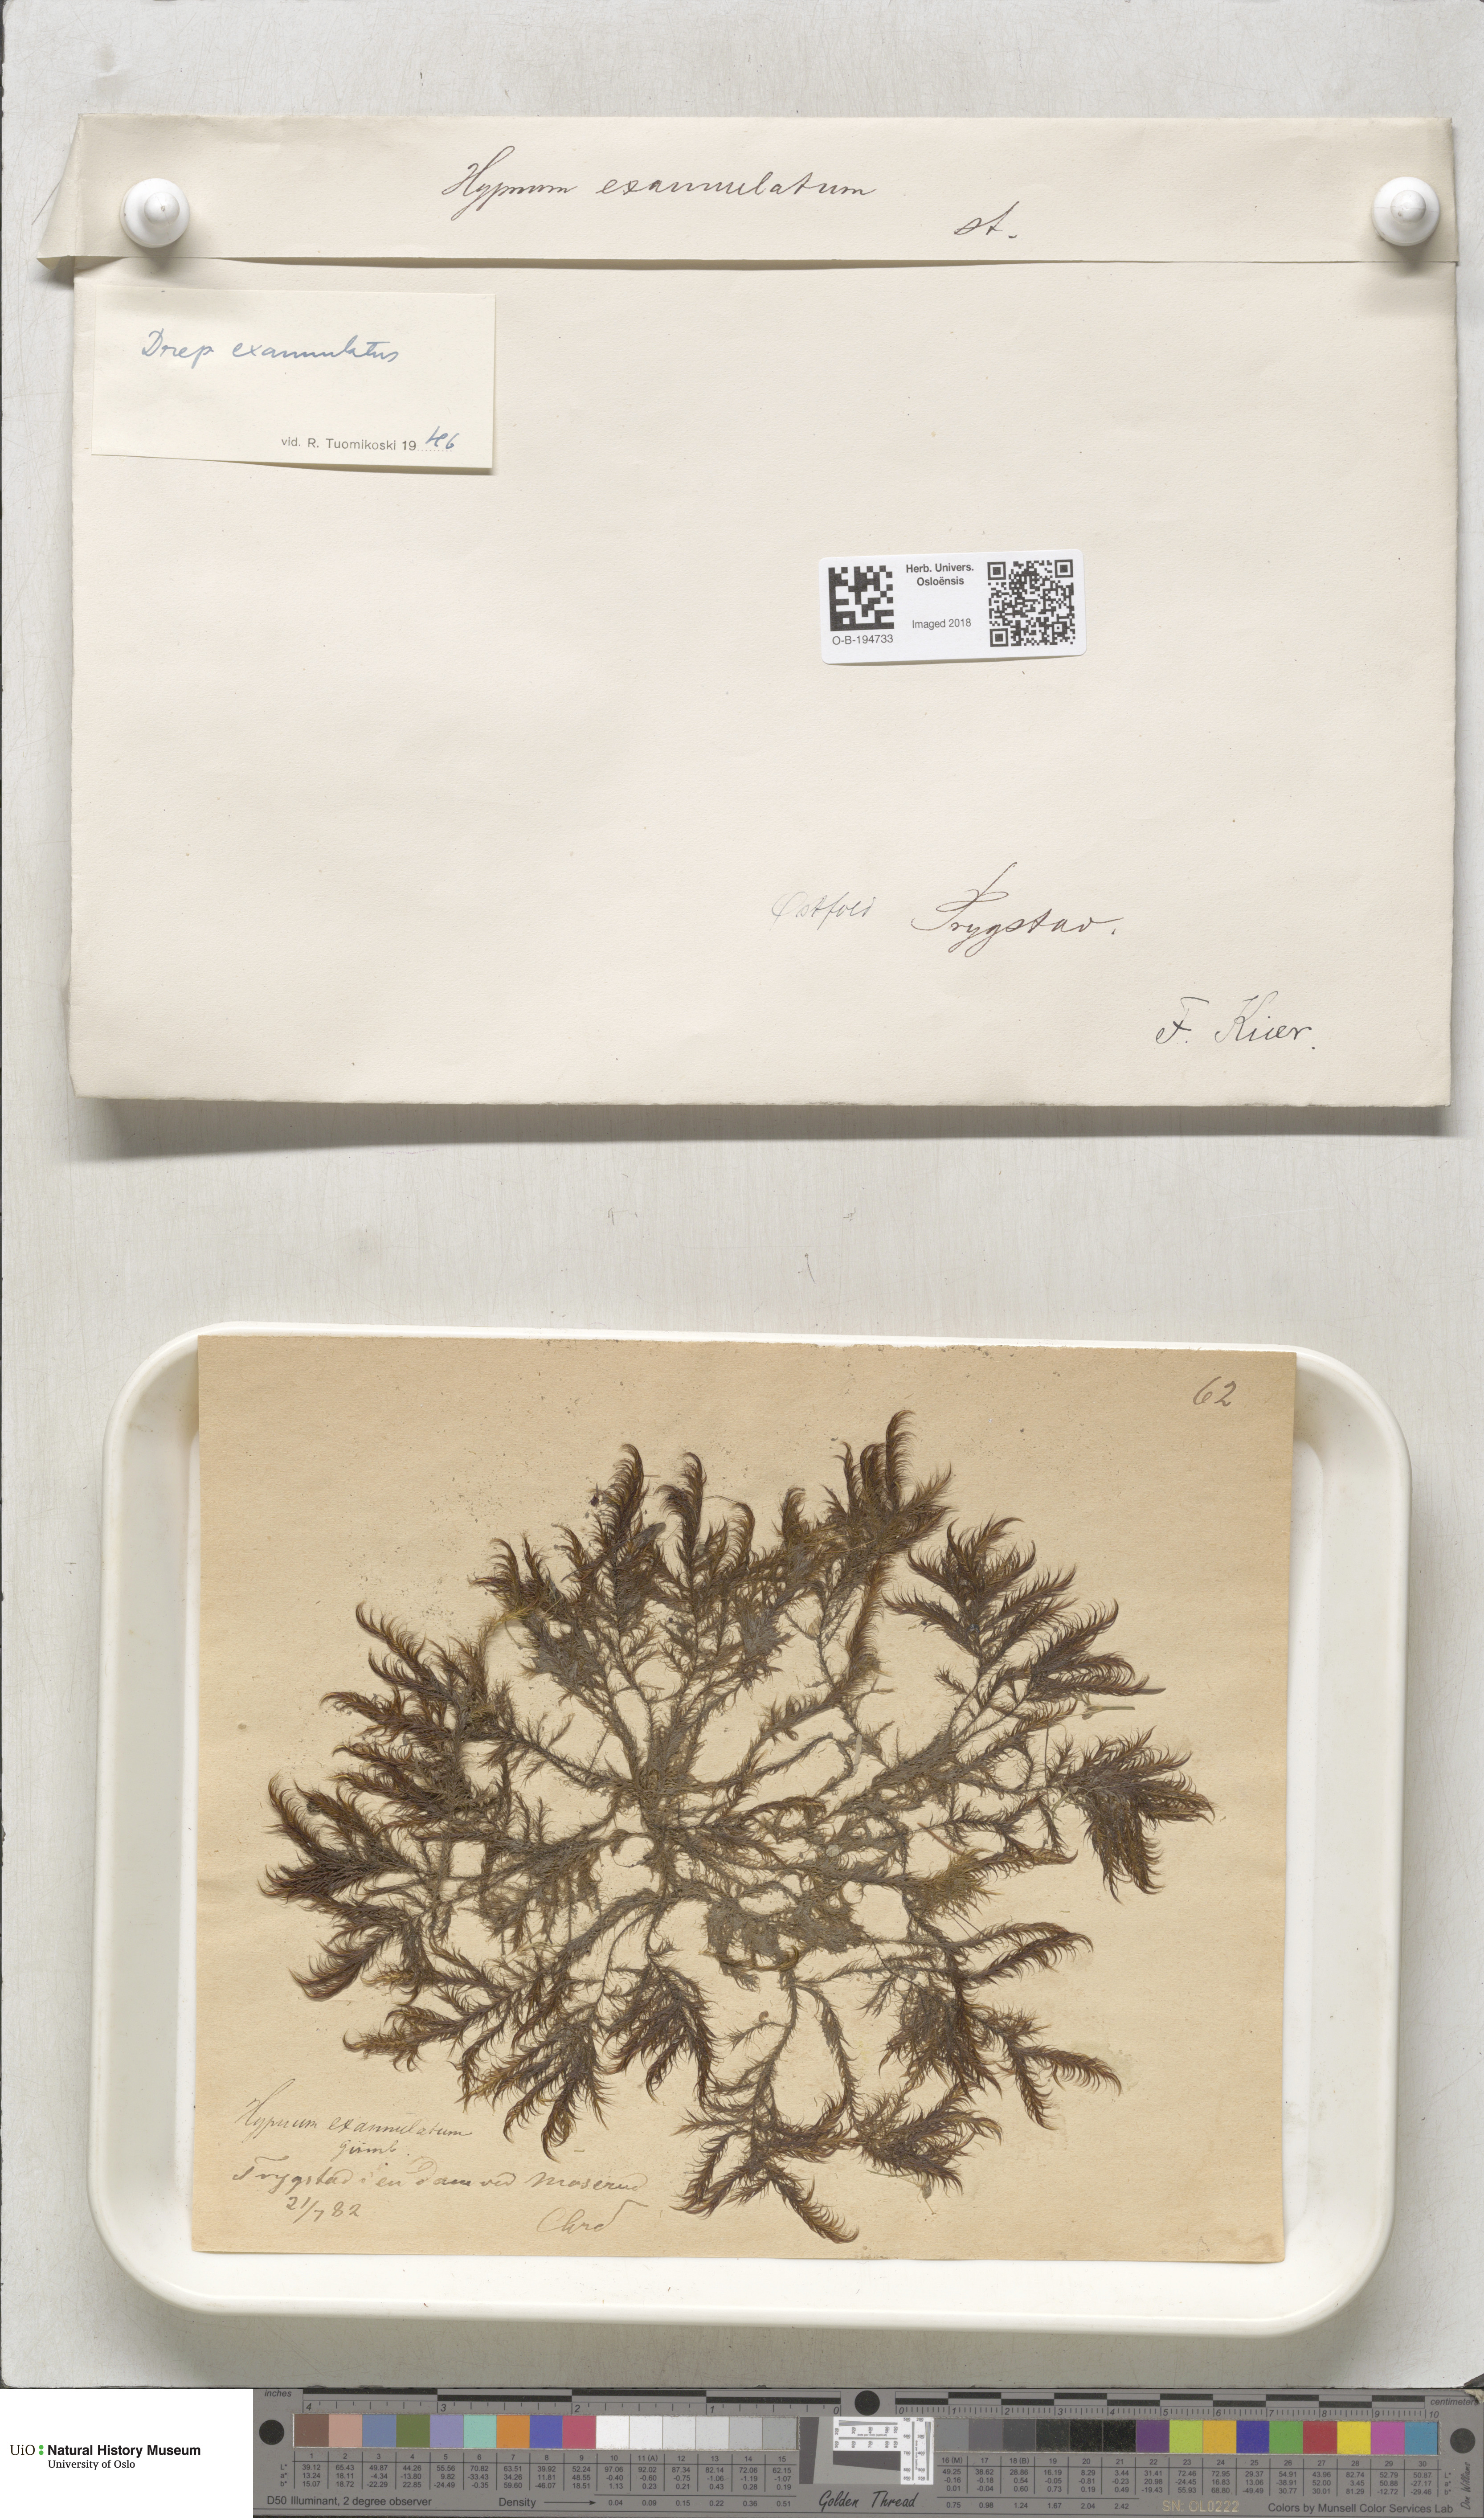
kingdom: Plantae
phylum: Bryophyta
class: Bryopsida
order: Hypnales
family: Calliergonaceae
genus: Sarmentypnum
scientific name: Sarmentypnum exannulatum
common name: Ringless spoon moss
